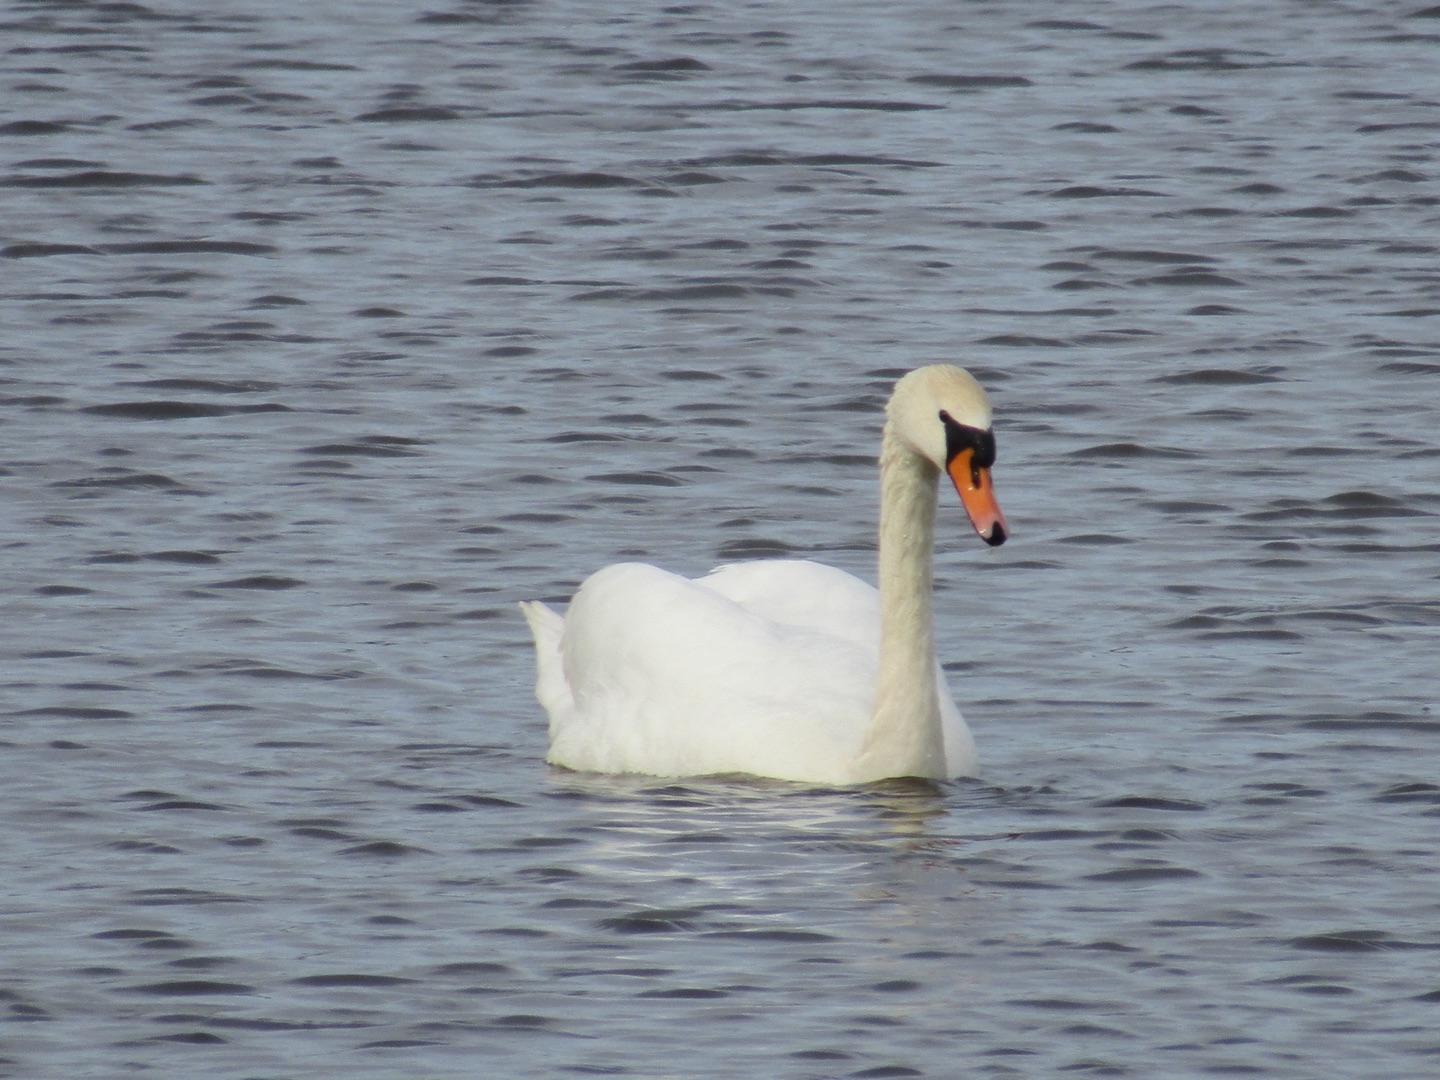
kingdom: Animalia
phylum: Chordata
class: Aves
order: Anseriformes
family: Anatidae
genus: Cygnus
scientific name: Cygnus olor
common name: Knopsvane
